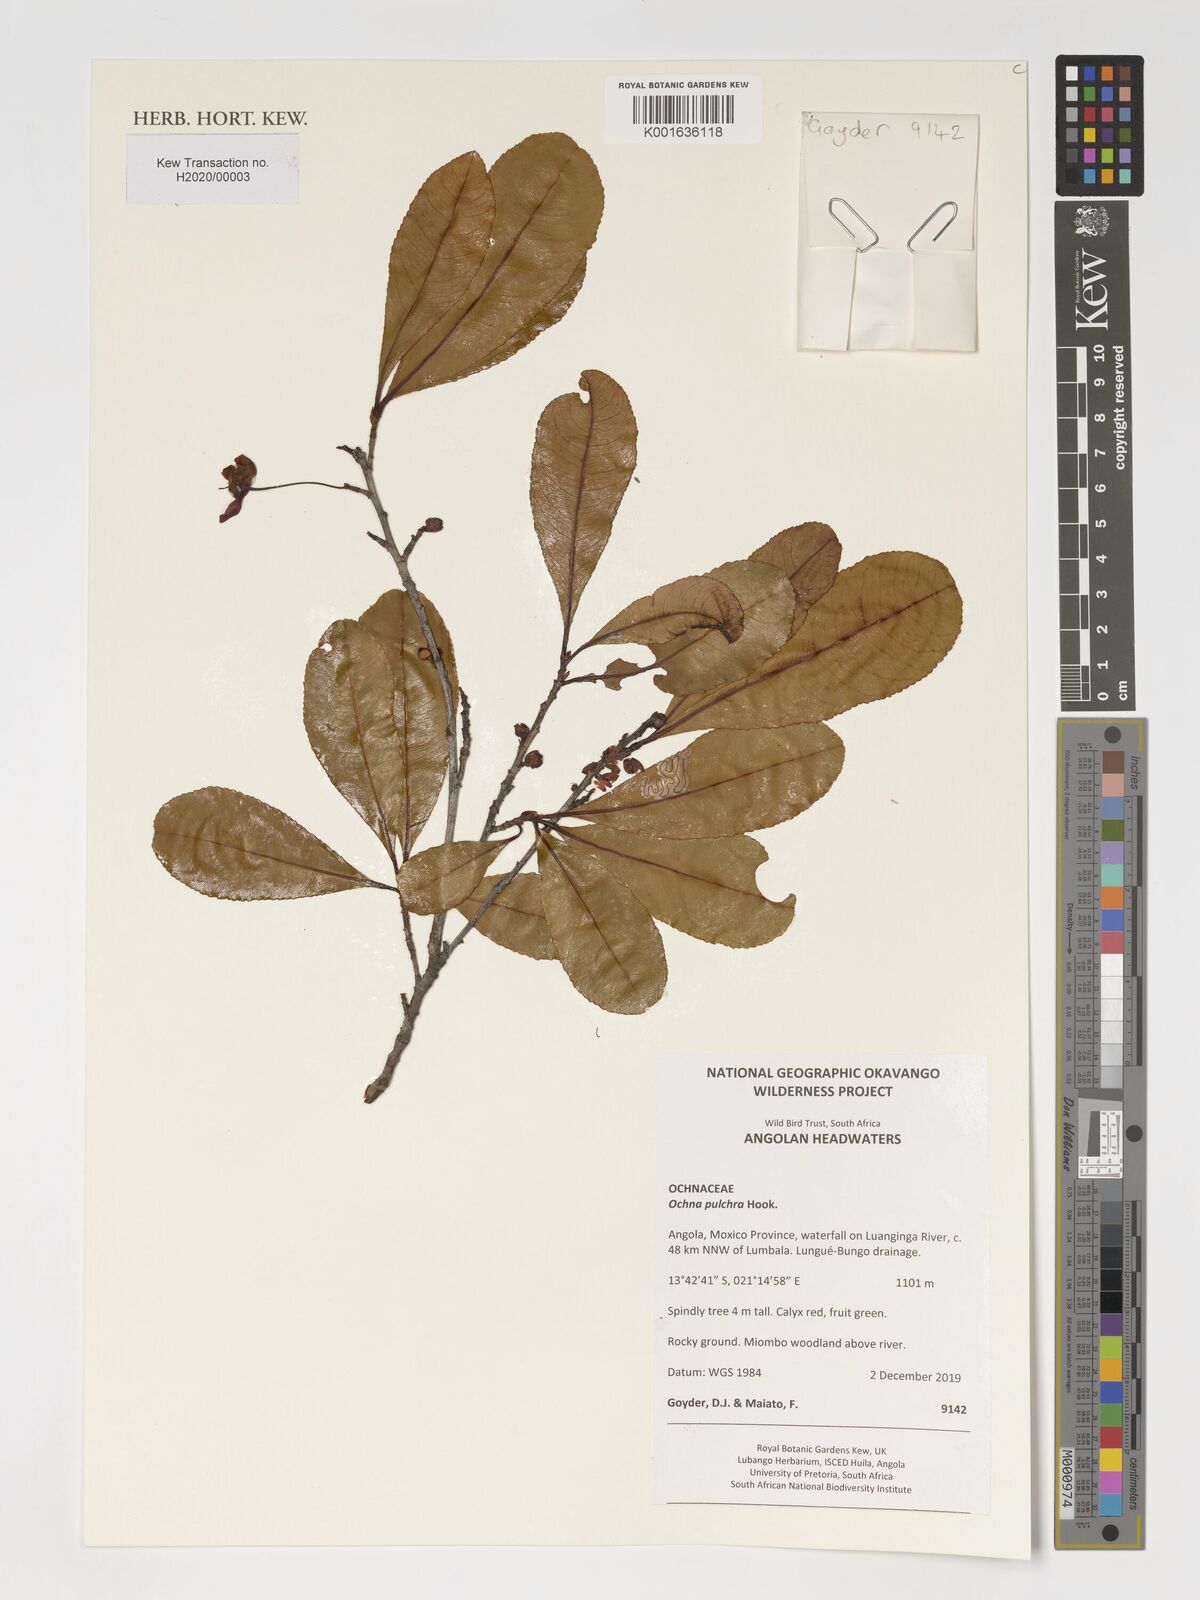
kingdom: Plantae
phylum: Tracheophyta
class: Magnoliopsida
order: Malpighiales
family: Ochnaceae
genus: Ochna
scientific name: Ochna pulchra
